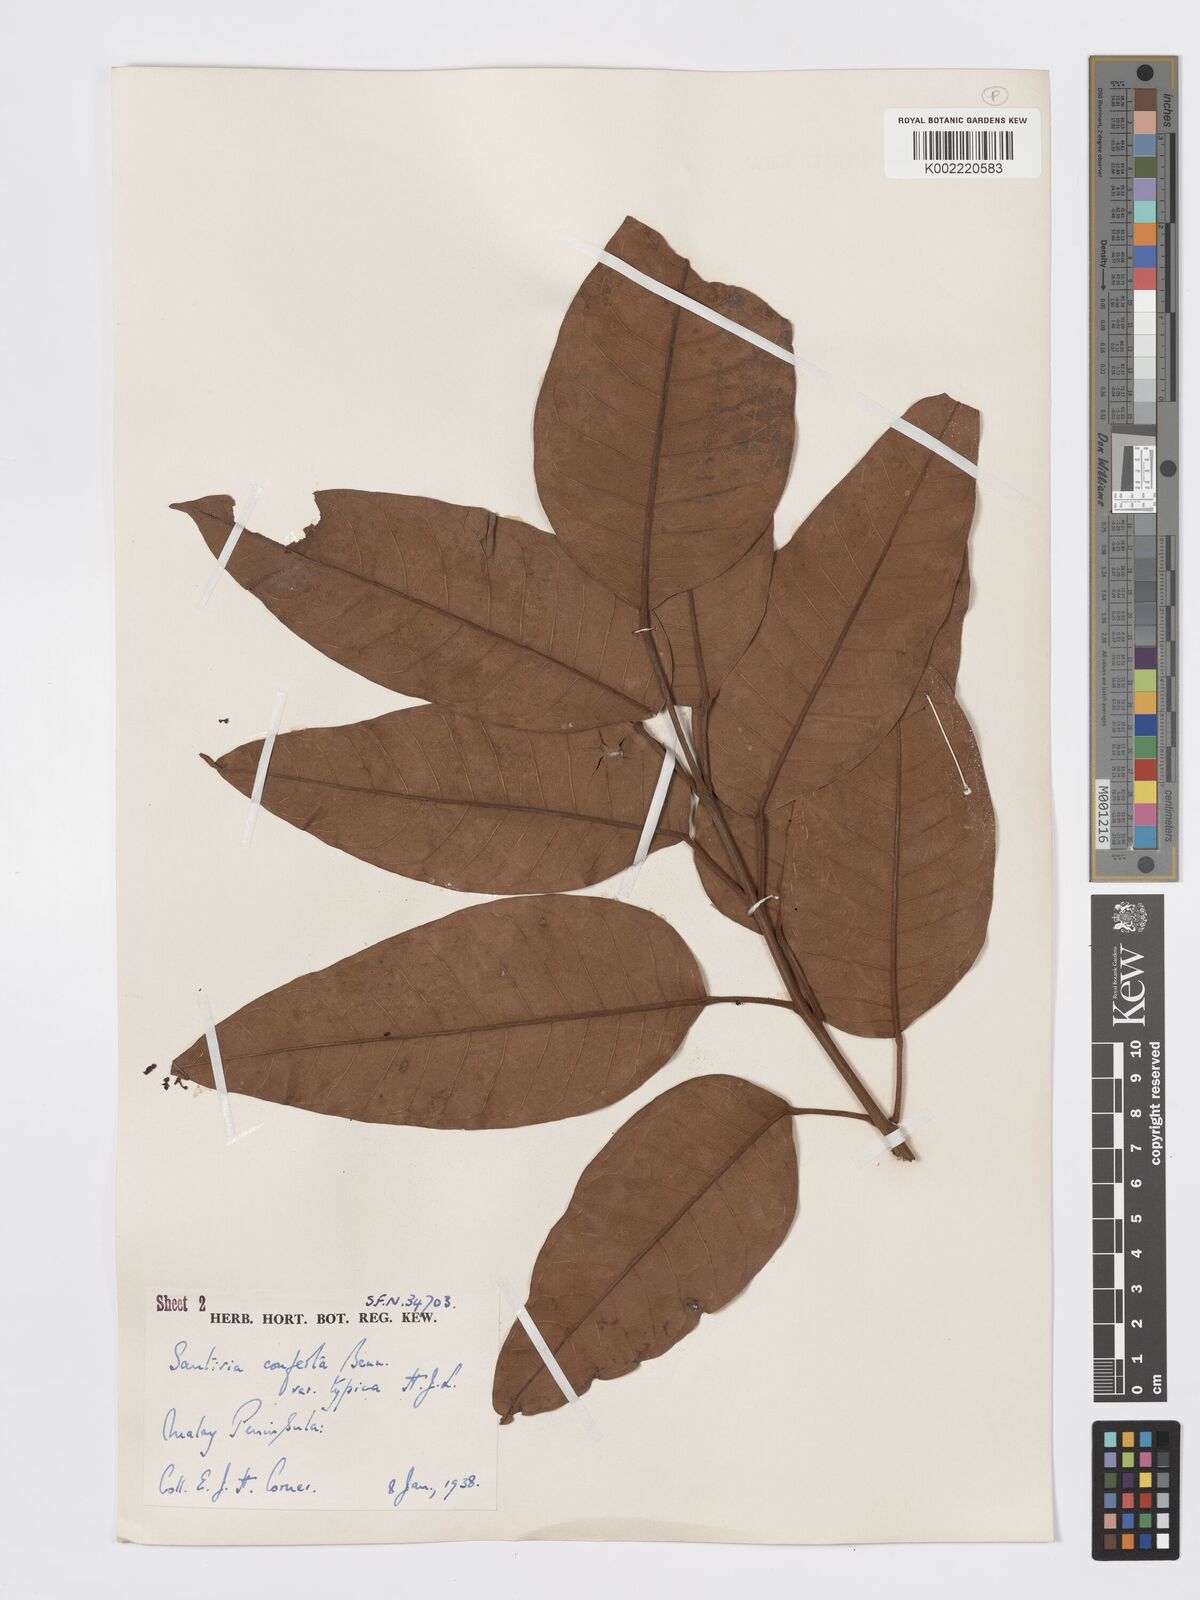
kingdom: Plantae
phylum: Tracheophyta
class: Magnoliopsida
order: Sapindales
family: Burseraceae
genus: Santiria
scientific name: Santiria conferta
